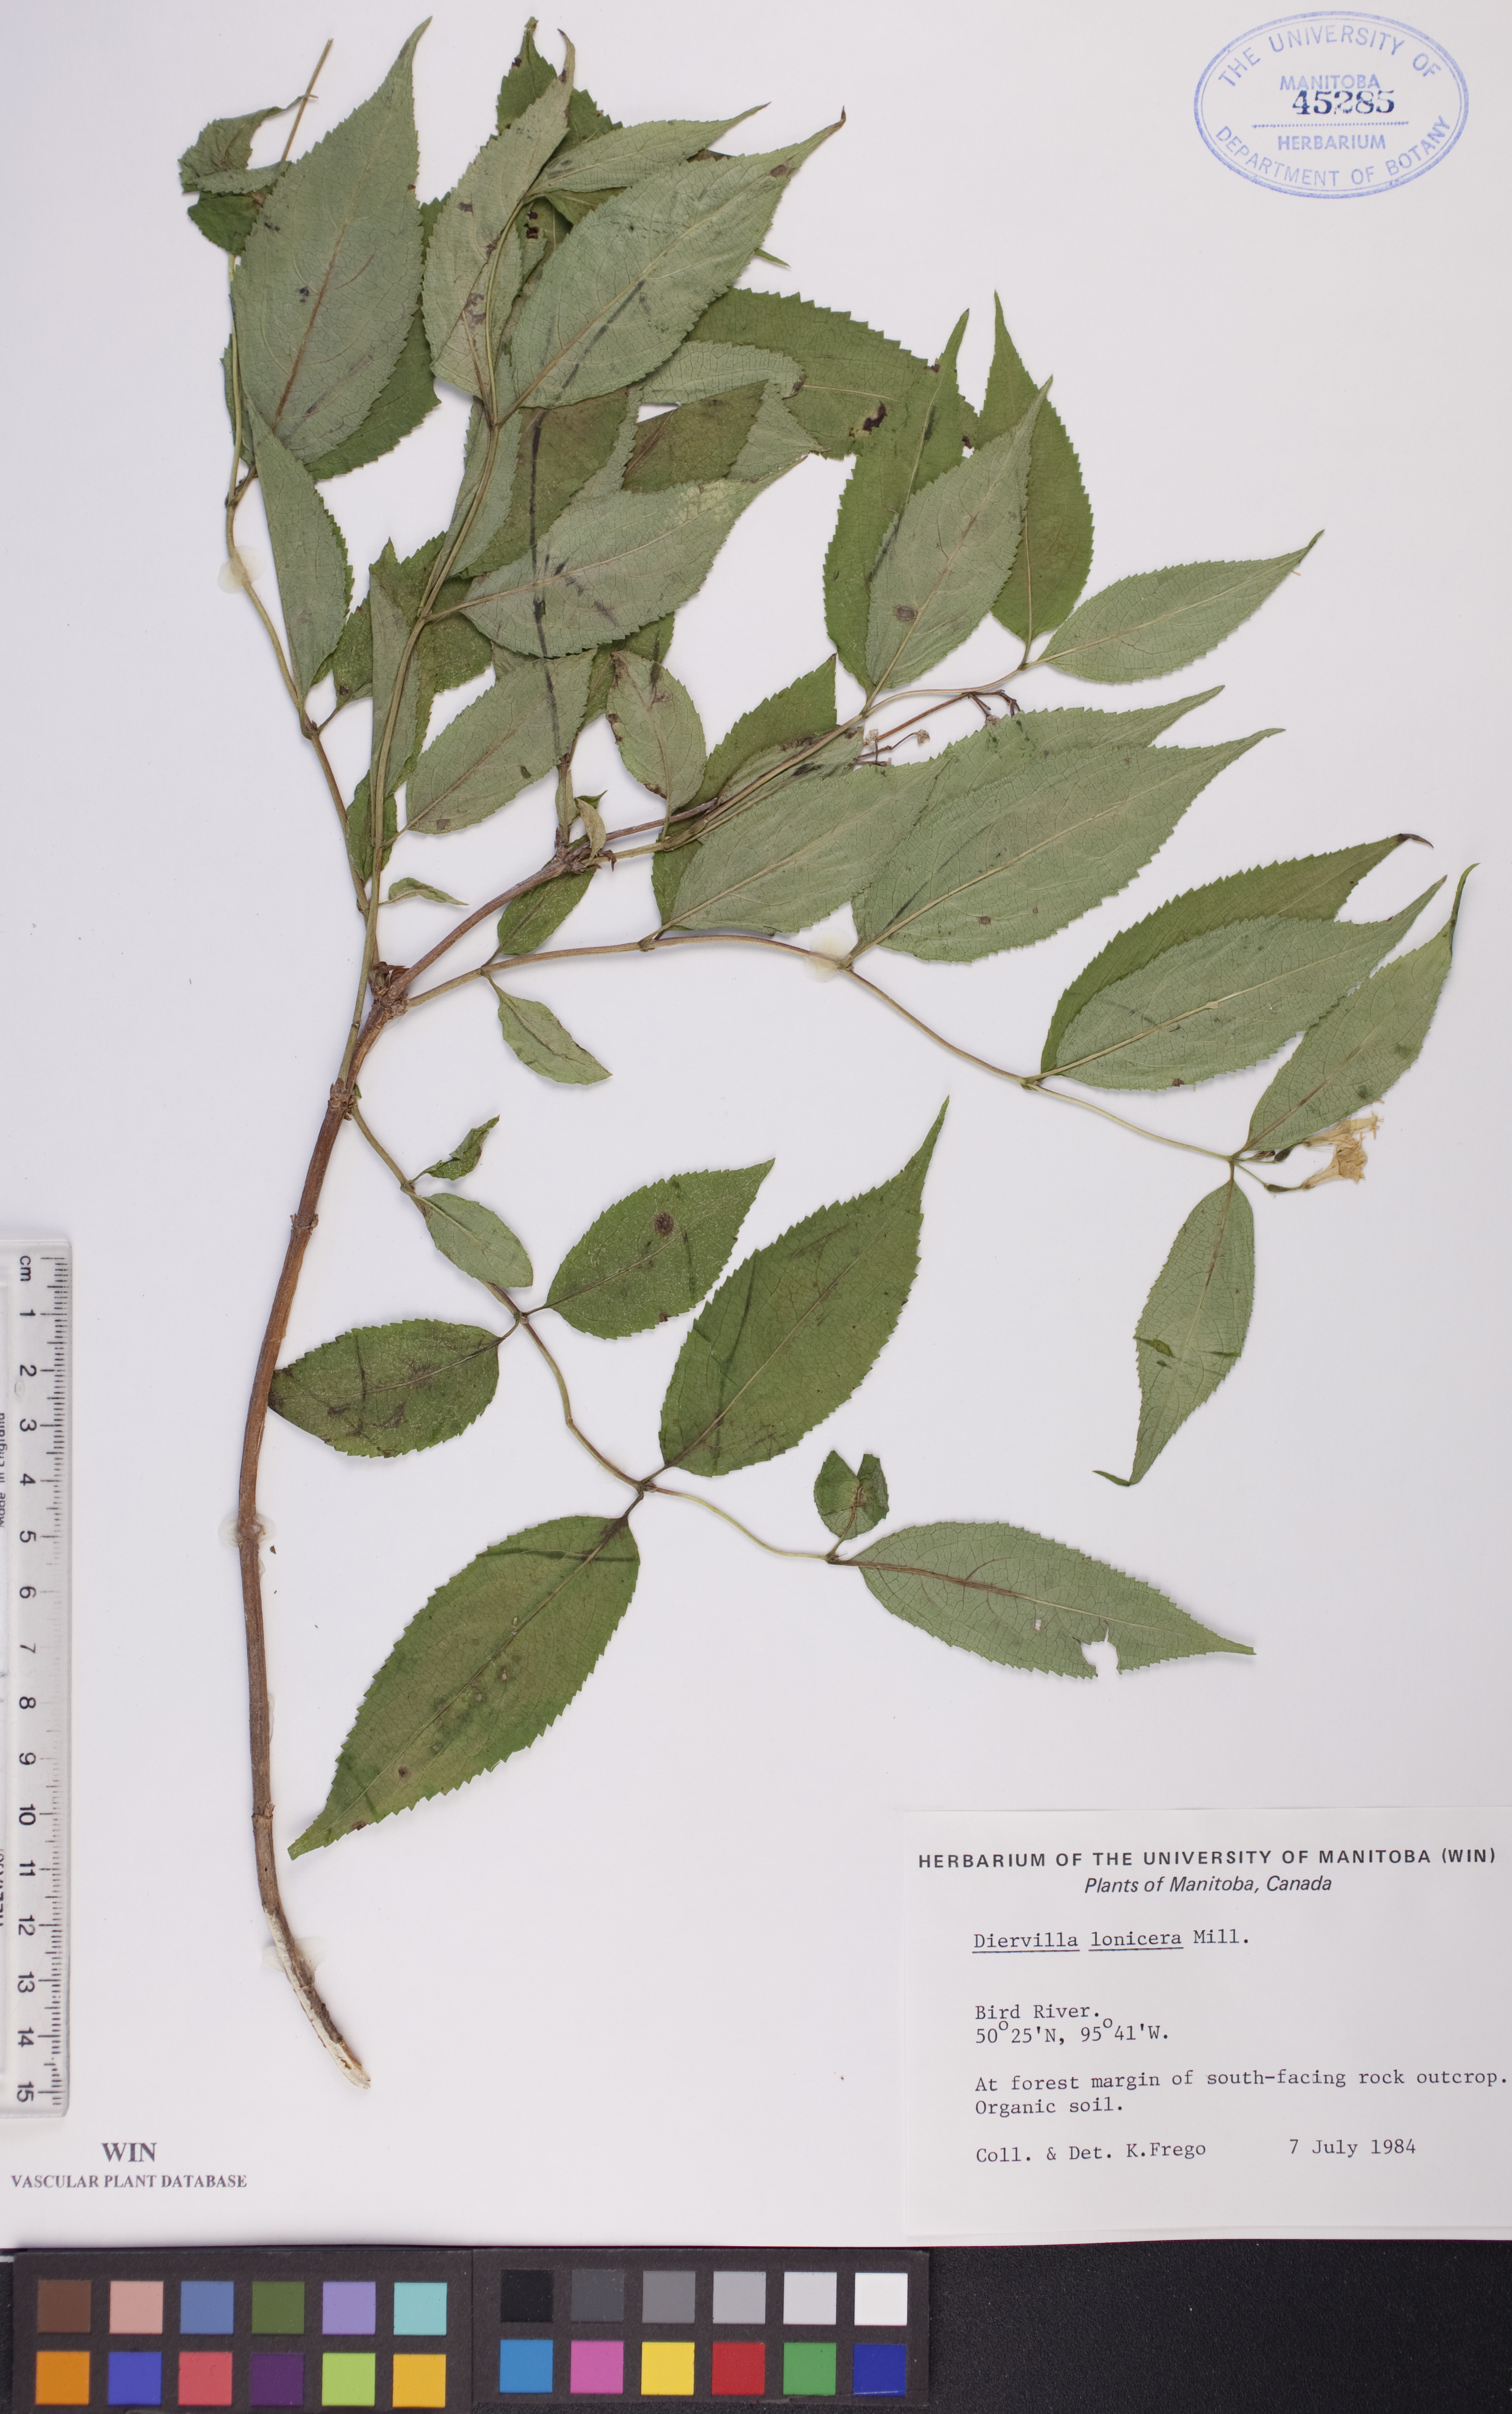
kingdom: Plantae
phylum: Tracheophyta
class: Magnoliopsida
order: Dipsacales
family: Caprifoliaceae
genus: Diervilla
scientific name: Diervilla lonicera
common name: Bush-honeysuckle
